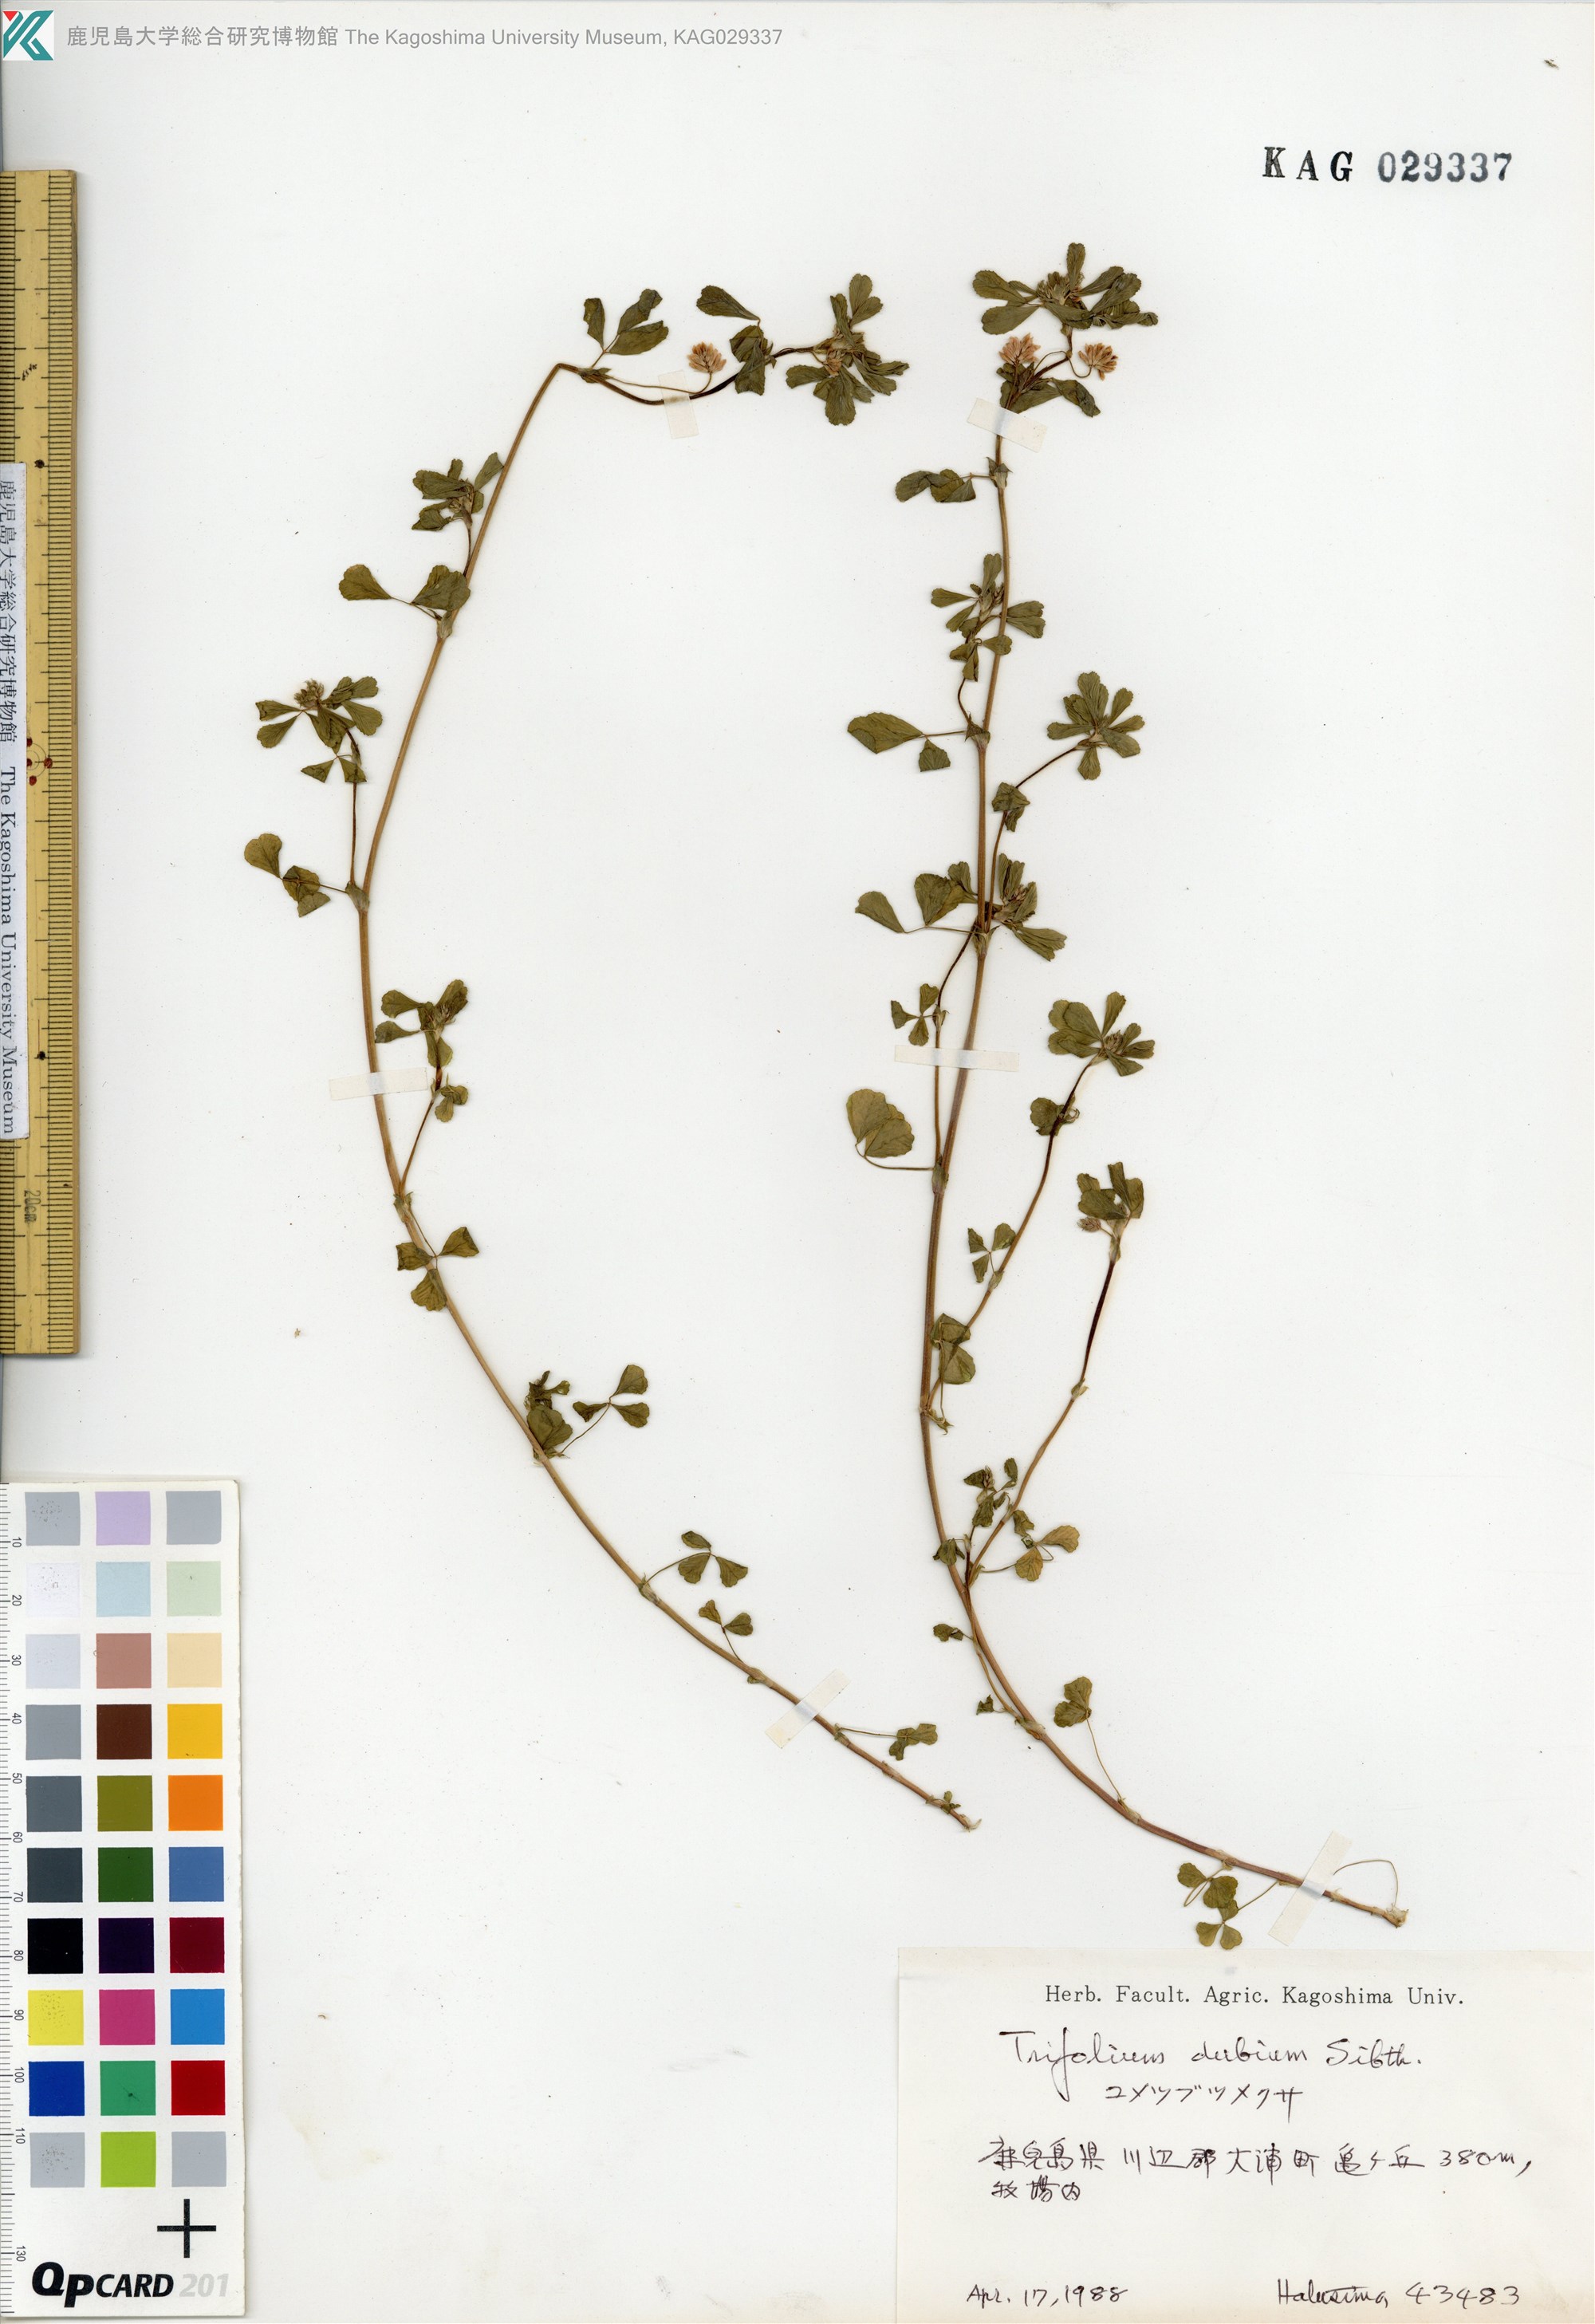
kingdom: Plantae
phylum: Tracheophyta
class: Magnoliopsida
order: Fabales
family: Fabaceae
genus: Trifolium
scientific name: Trifolium dubium
